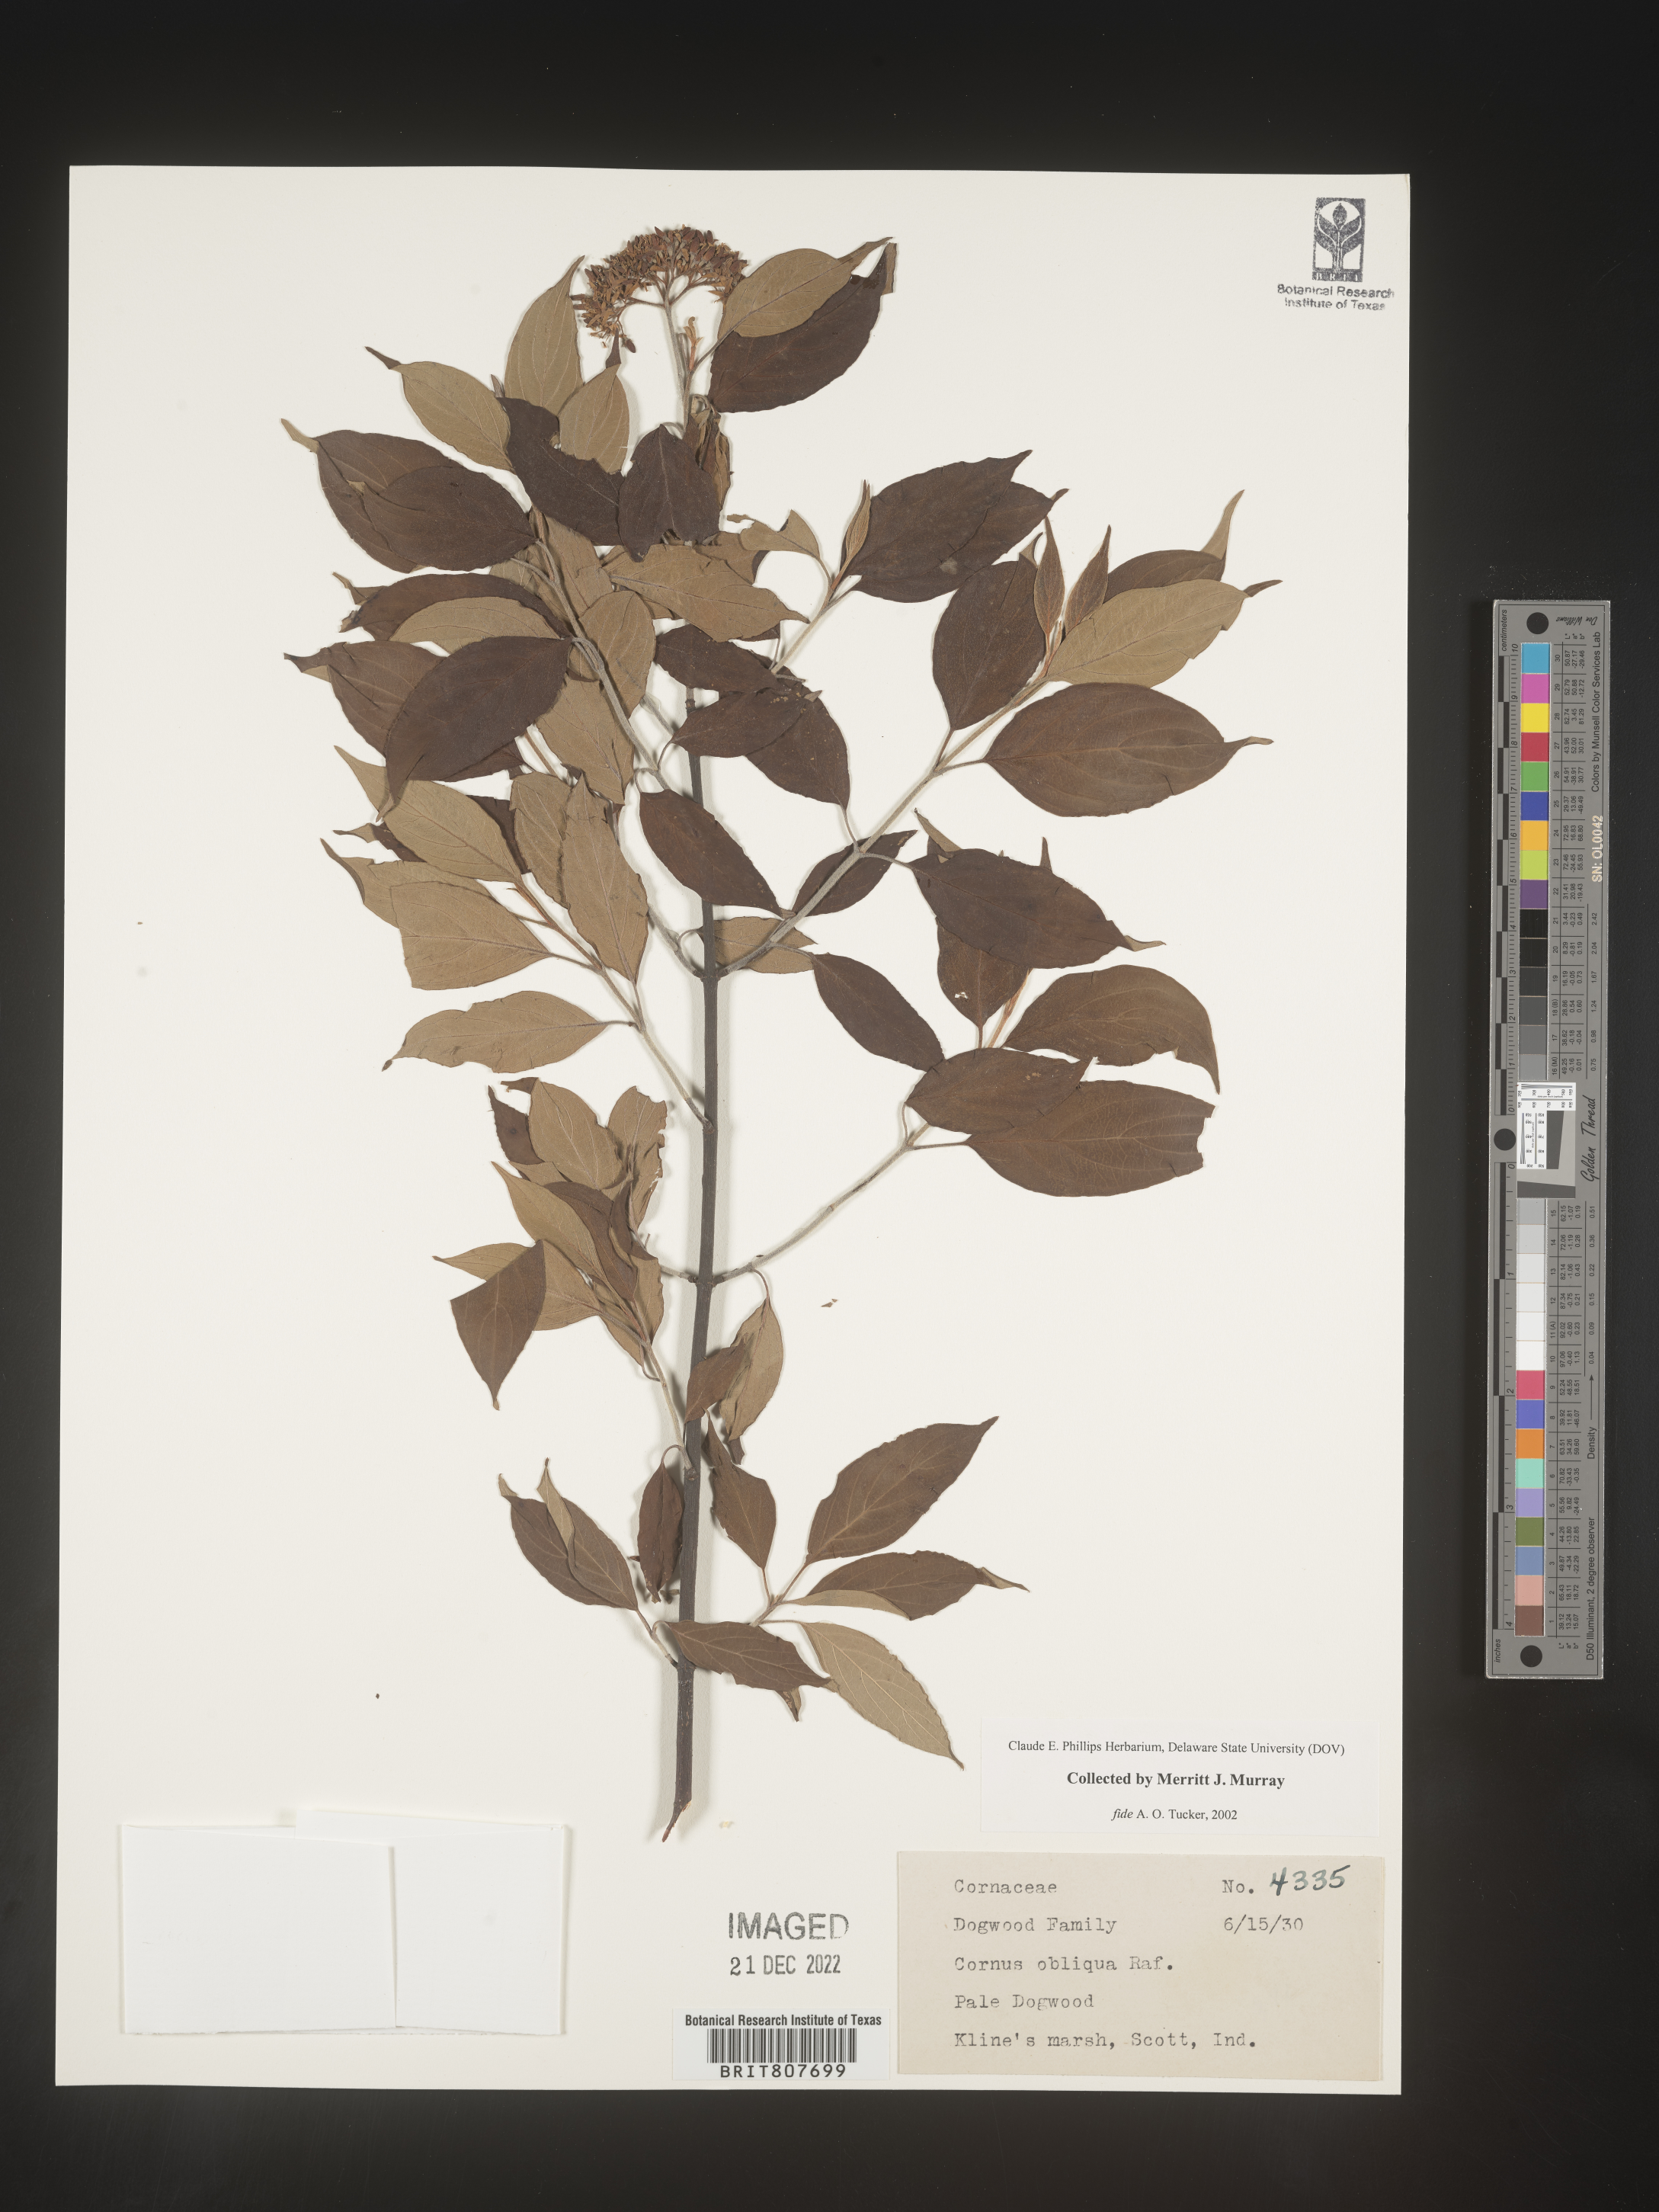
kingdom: Plantae
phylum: Tracheophyta
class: Magnoliopsida
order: Cornales
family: Cornaceae
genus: Cornus
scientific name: Cornus obliqua
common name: Pale dogwood
